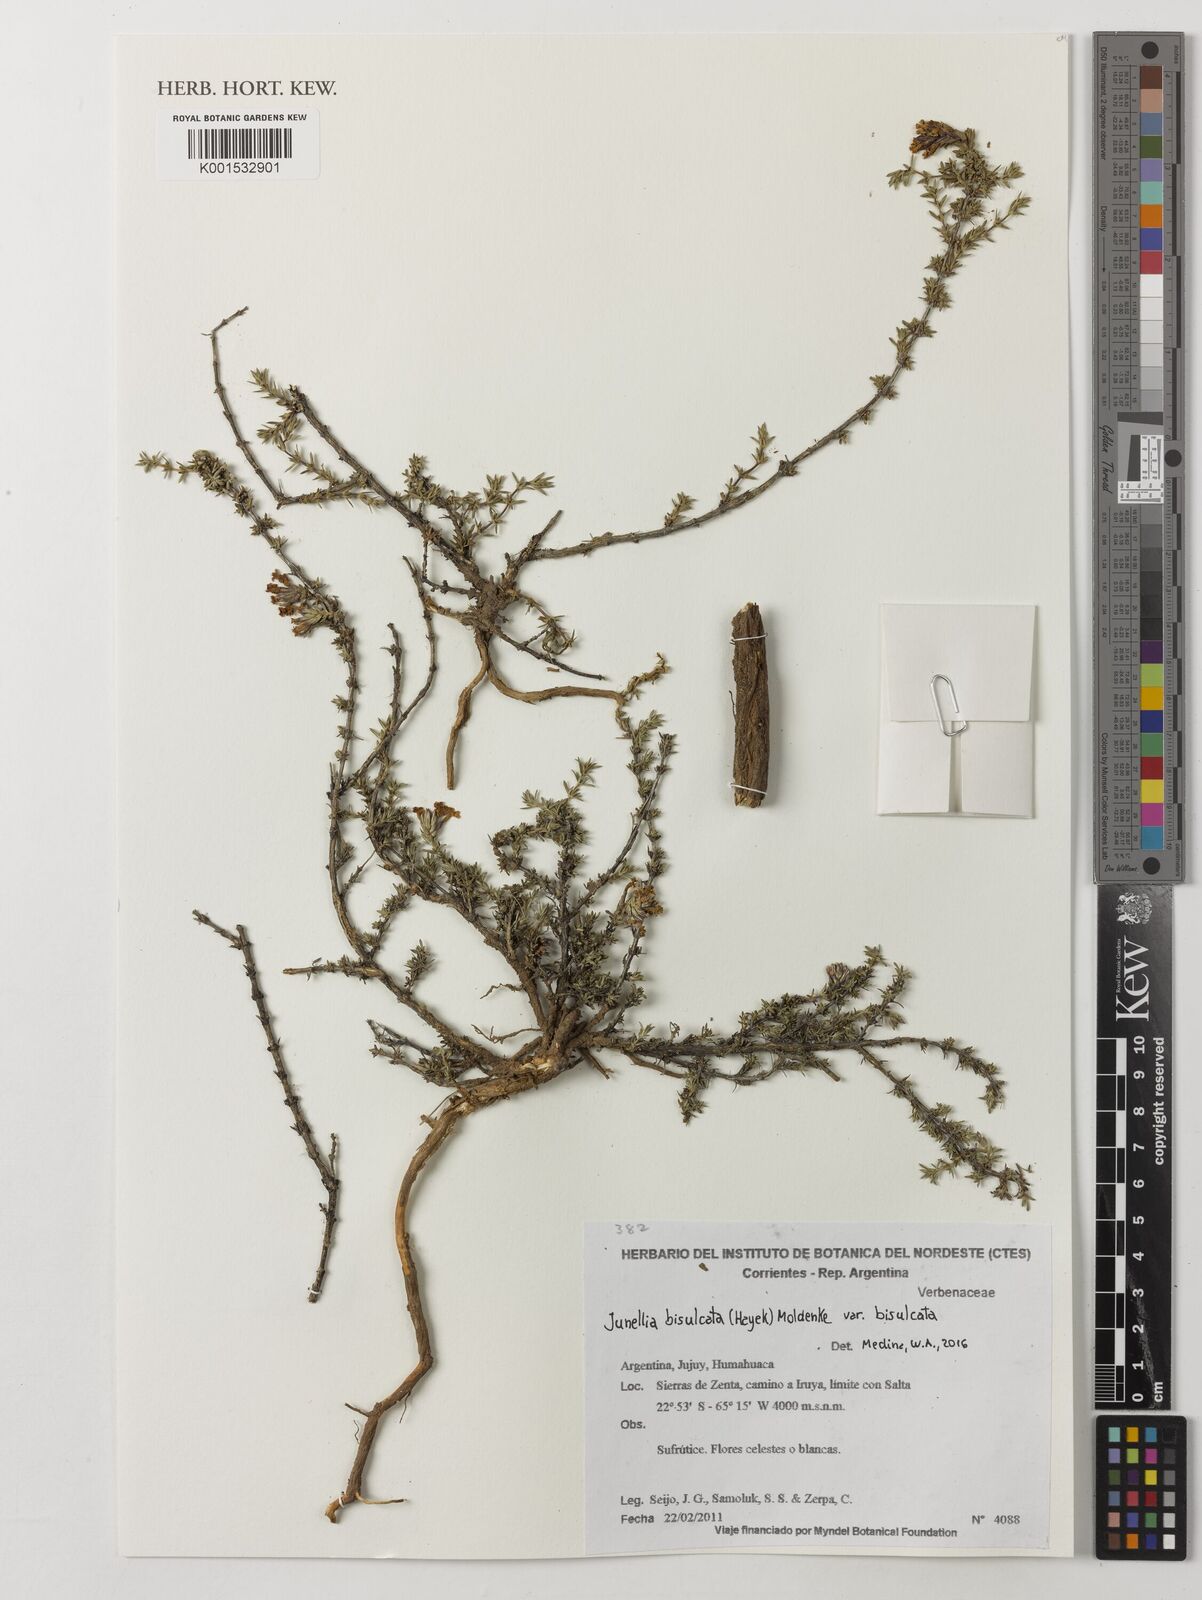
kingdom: Plantae
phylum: Tracheophyta
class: Magnoliopsida
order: Lamiales
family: Verbenaceae
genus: Junellia
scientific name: Junellia bisulcata
